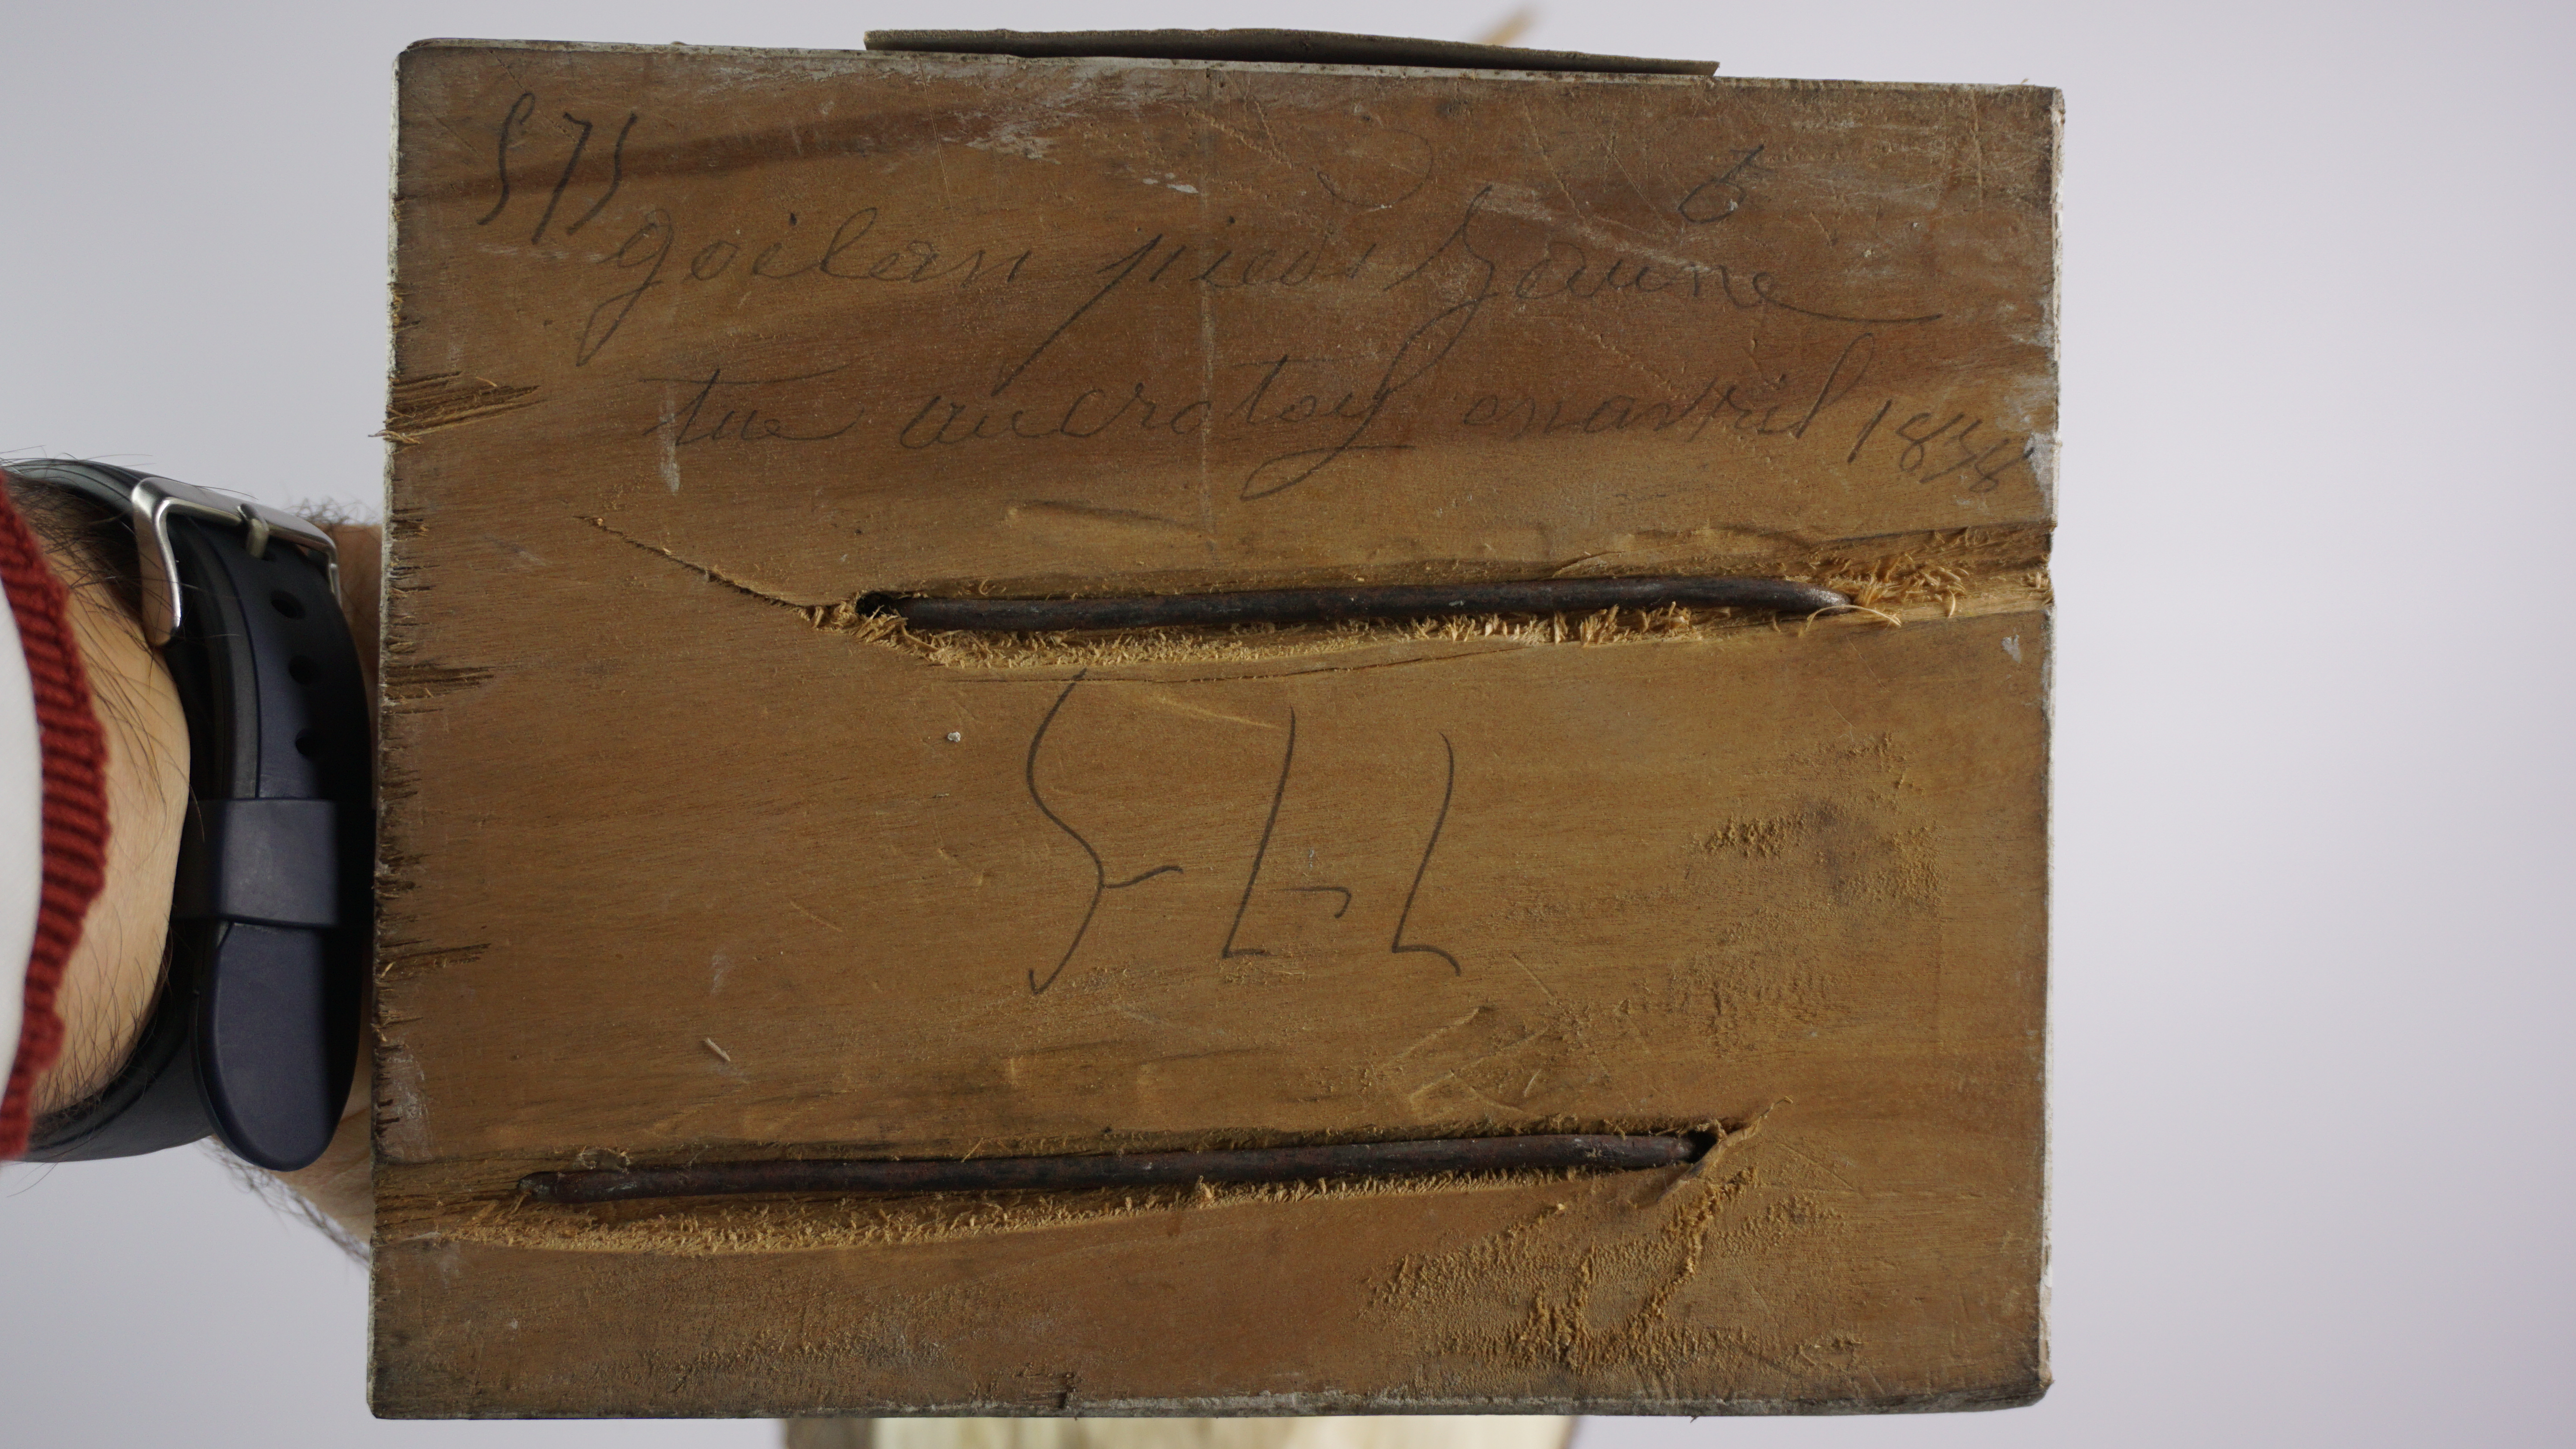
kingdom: Animalia
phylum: Chordata
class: Aves
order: Charadriiformes
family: Laridae
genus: Larus
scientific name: Larus fuscus
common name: Lesser black-backed gull
